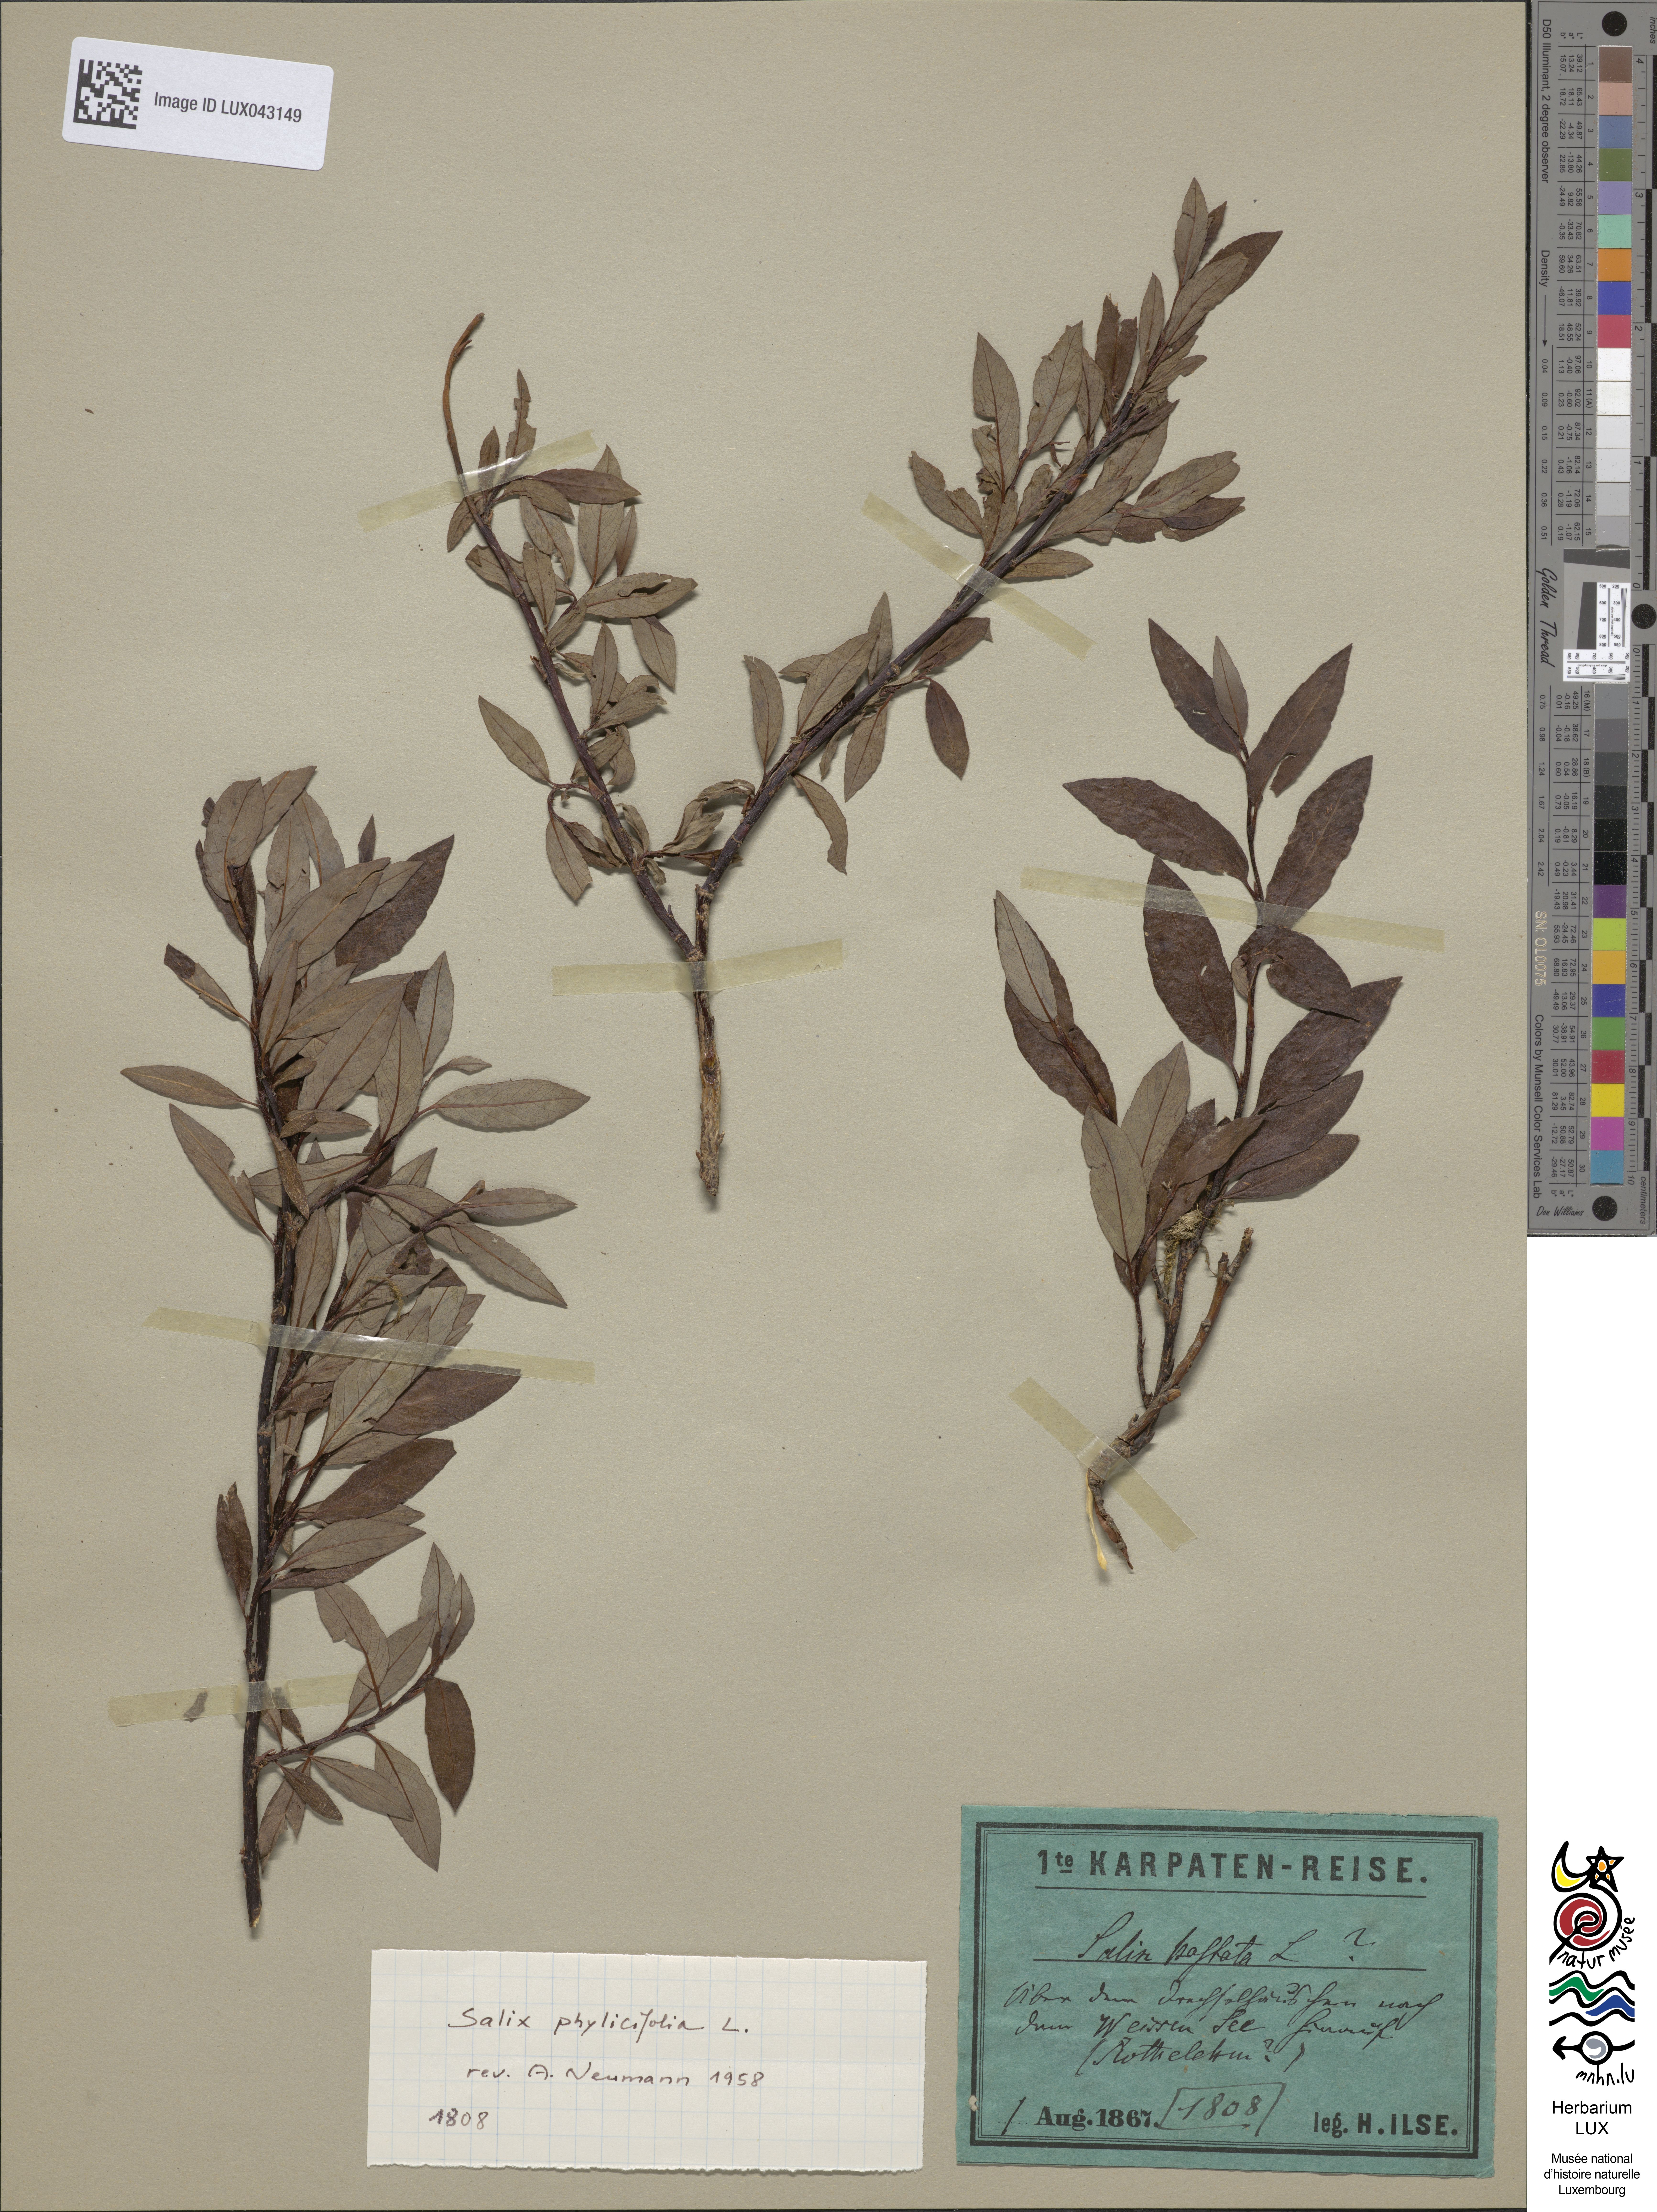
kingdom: Plantae
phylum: Tracheophyta
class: Magnoliopsida
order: Malpighiales
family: Salicaceae
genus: Salix
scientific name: Salix hastata
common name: Halberd willow
